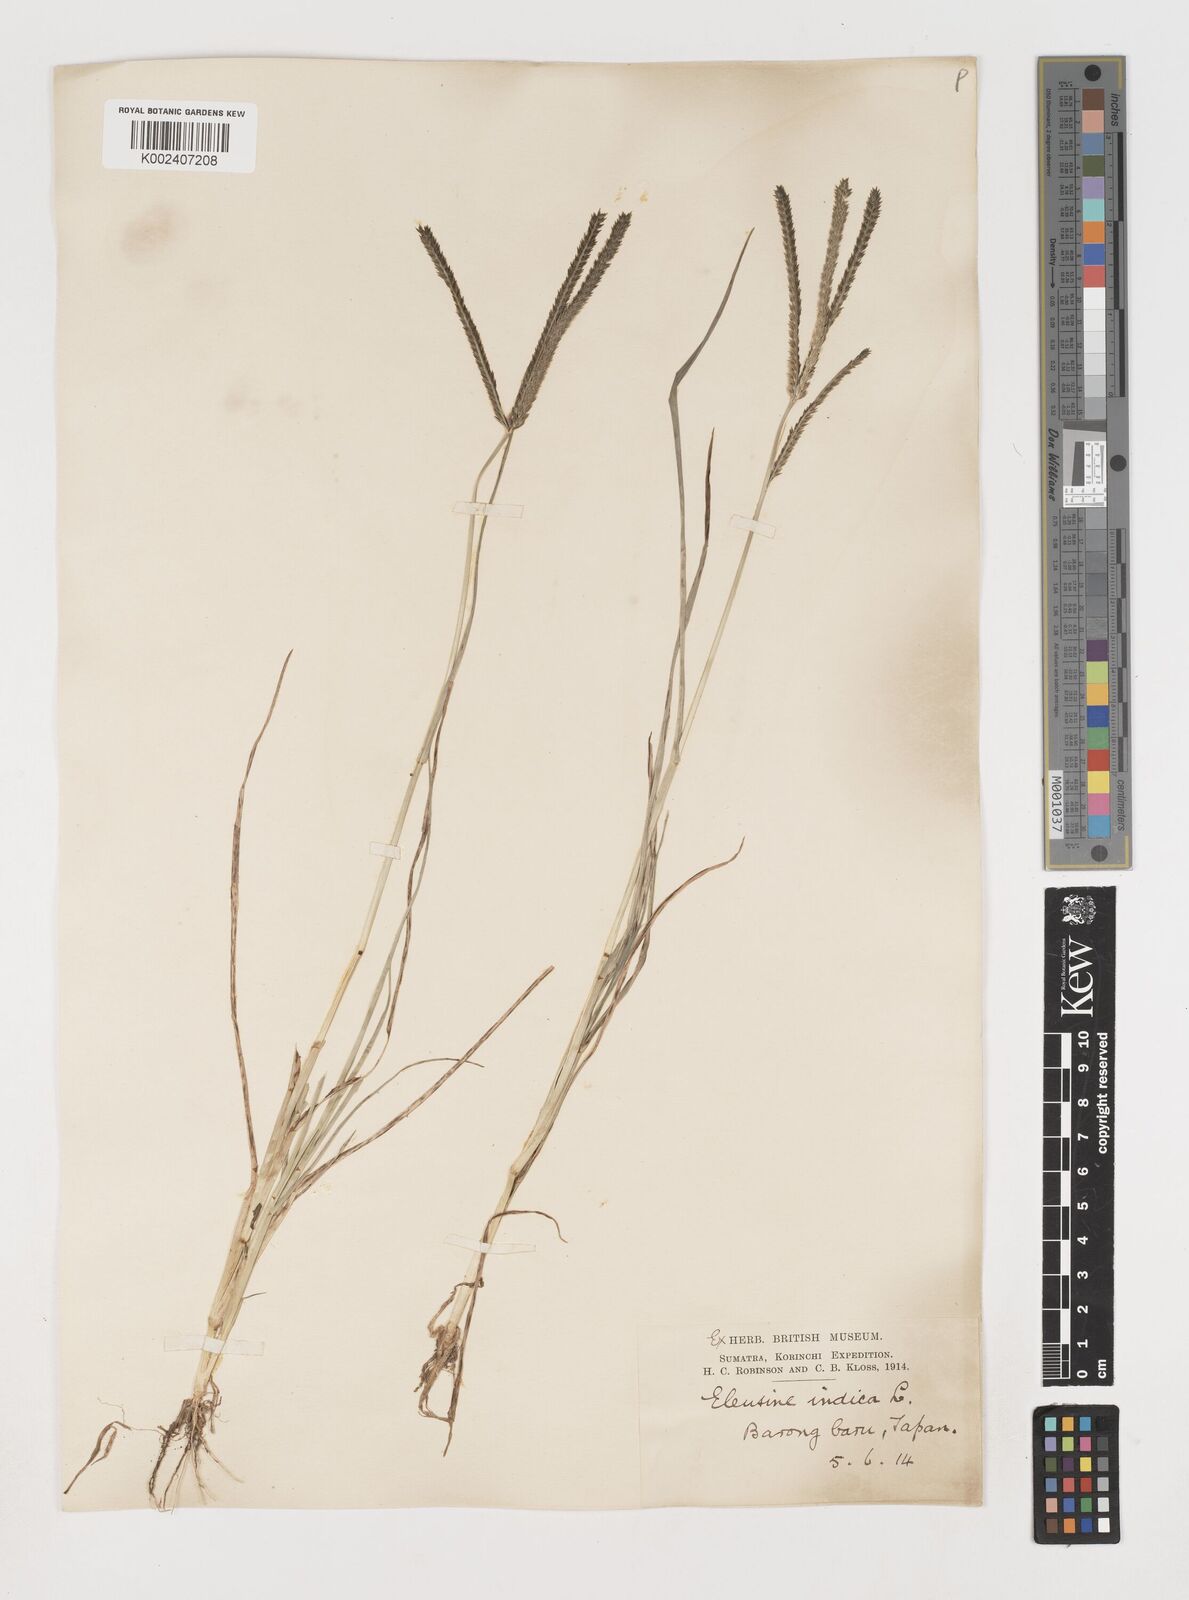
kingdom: Plantae
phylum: Tracheophyta
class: Liliopsida
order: Poales
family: Poaceae
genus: Eleusine
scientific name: Eleusine indica
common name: Yard-grass
